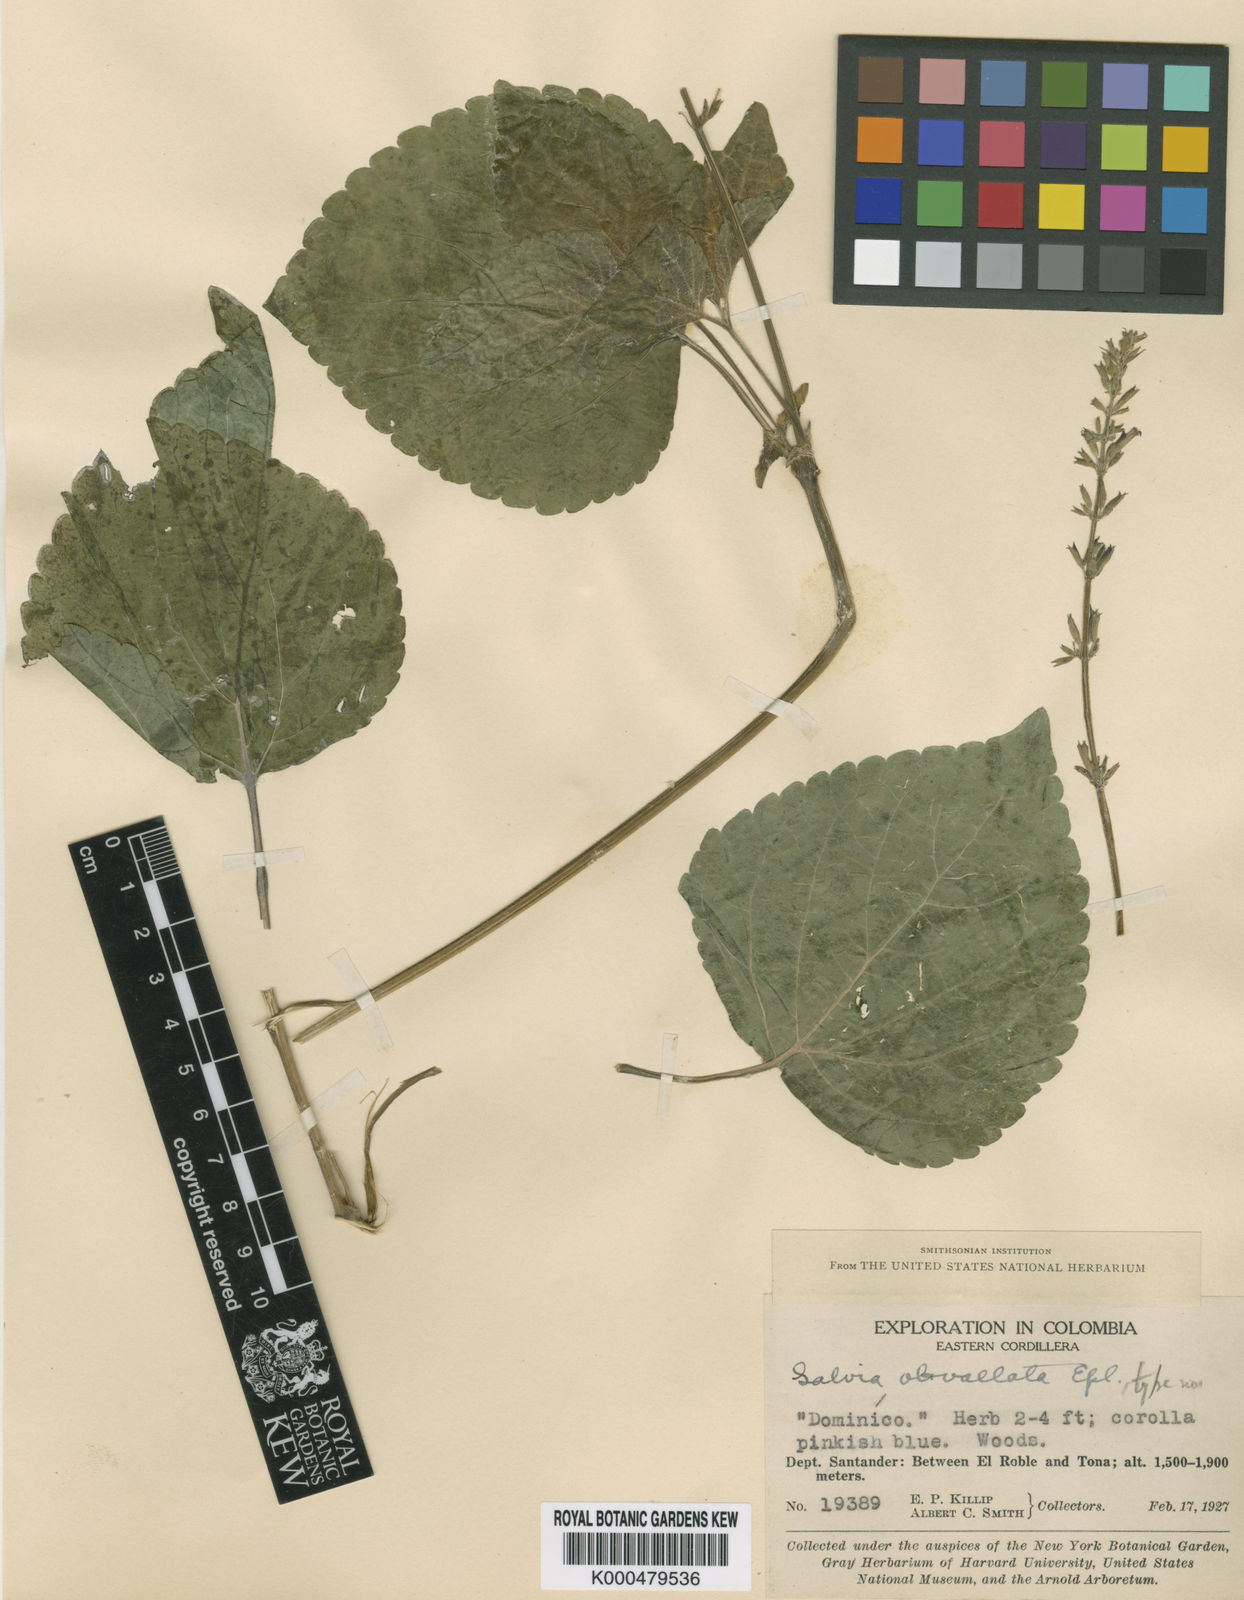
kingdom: Plantae
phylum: Tracheophyta
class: Magnoliopsida
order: Lamiales
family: Lamiaceae
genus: Salvia
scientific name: Salvia tiliifolia
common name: Lindenleaf sage
